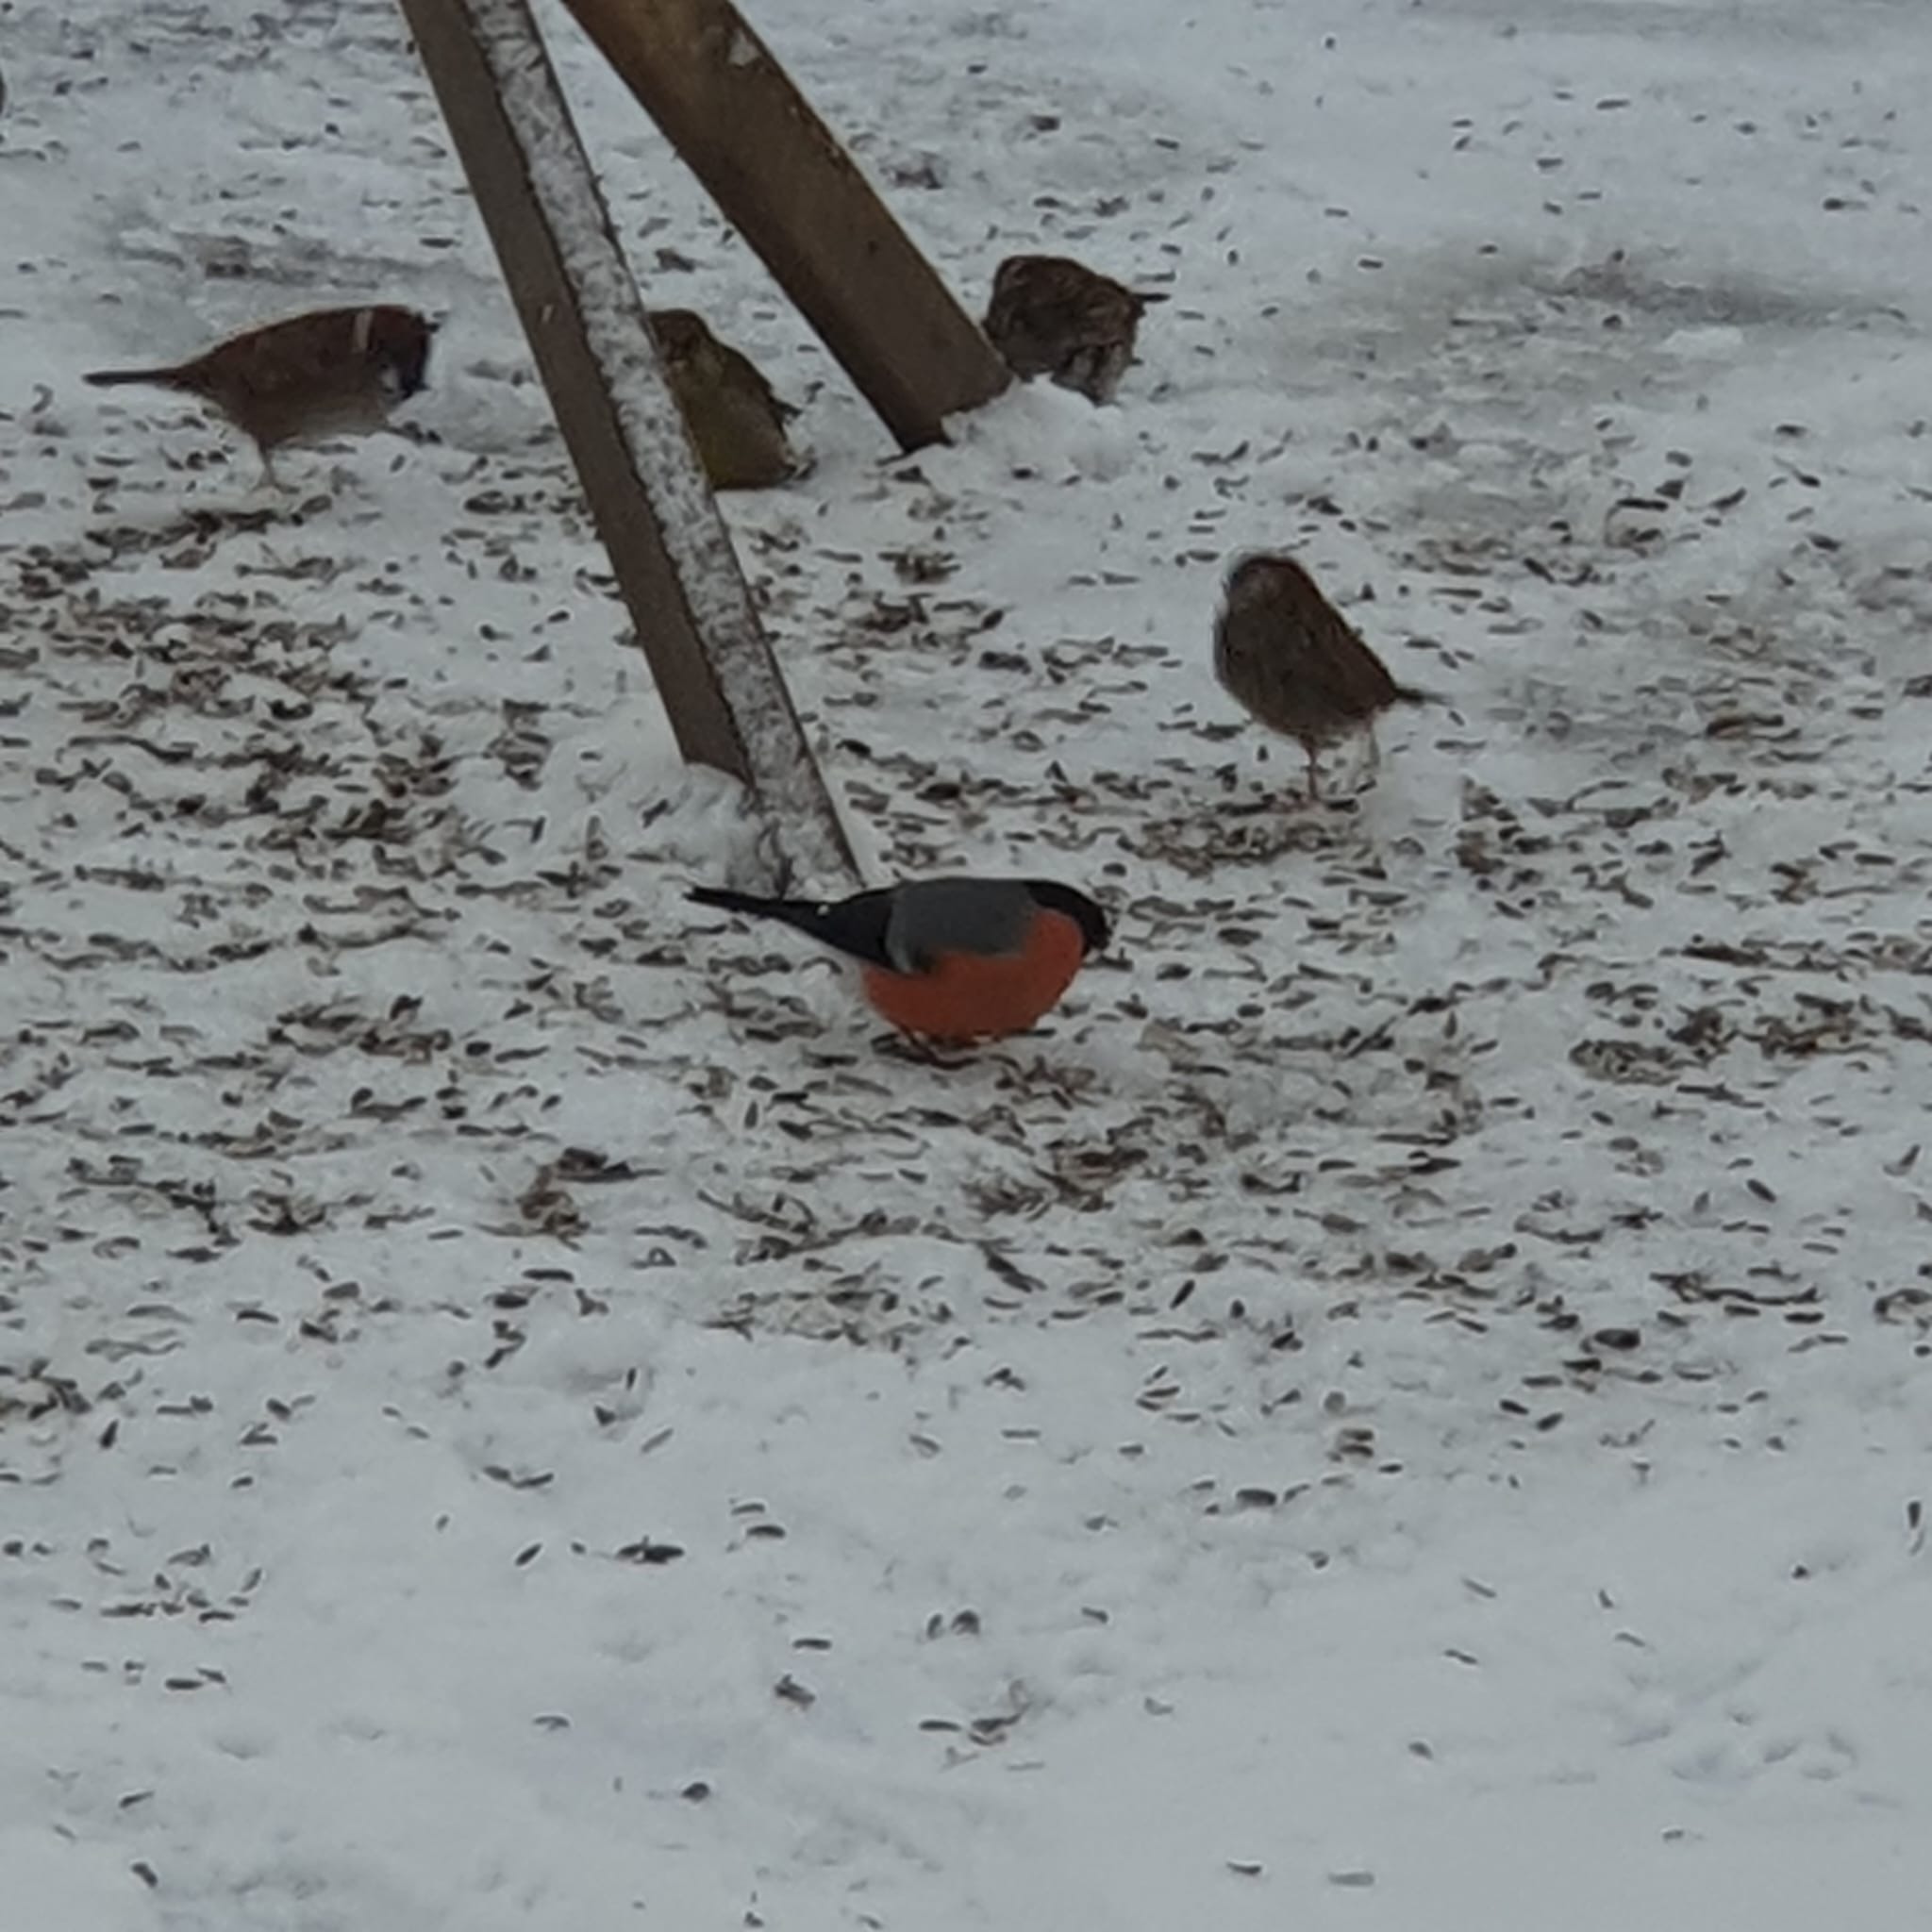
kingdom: Animalia
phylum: Chordata
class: Aves
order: Passeriformes
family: Fringillidae
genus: Pyrrhula
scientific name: Pyrrhula pyrrhula
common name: Dompap
